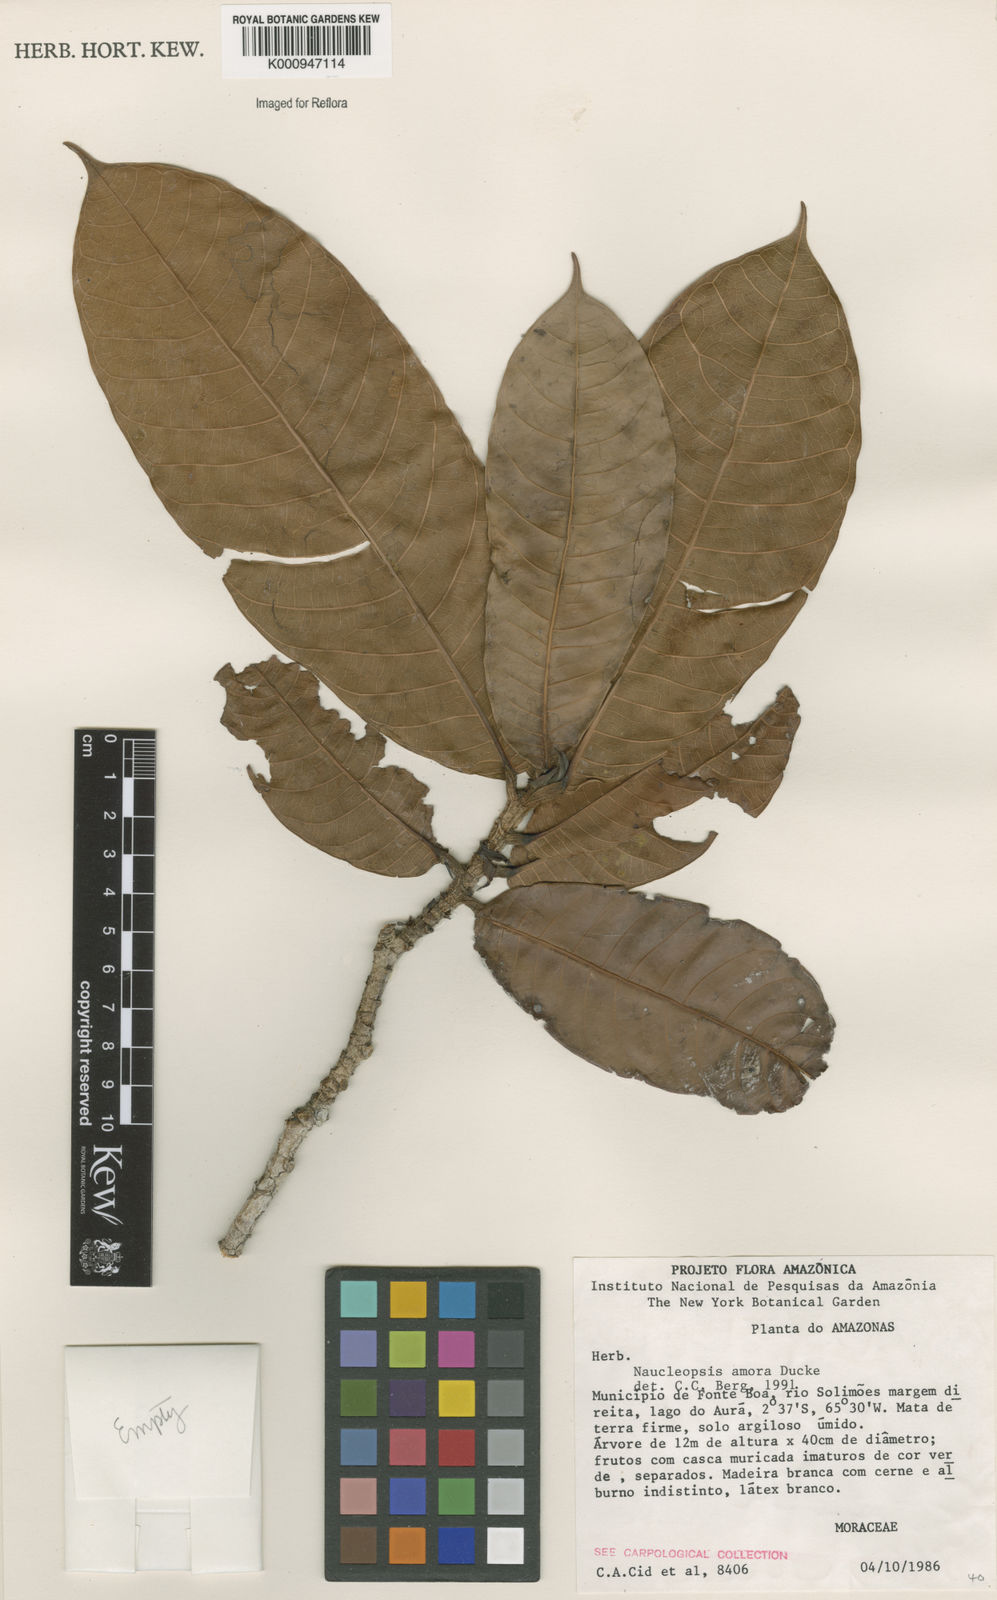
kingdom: Plantae
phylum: Tracheophyta
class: Magnoliopsida
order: Rosales
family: Moraceae
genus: Naucleopsis
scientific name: Naucleopsis ulei
